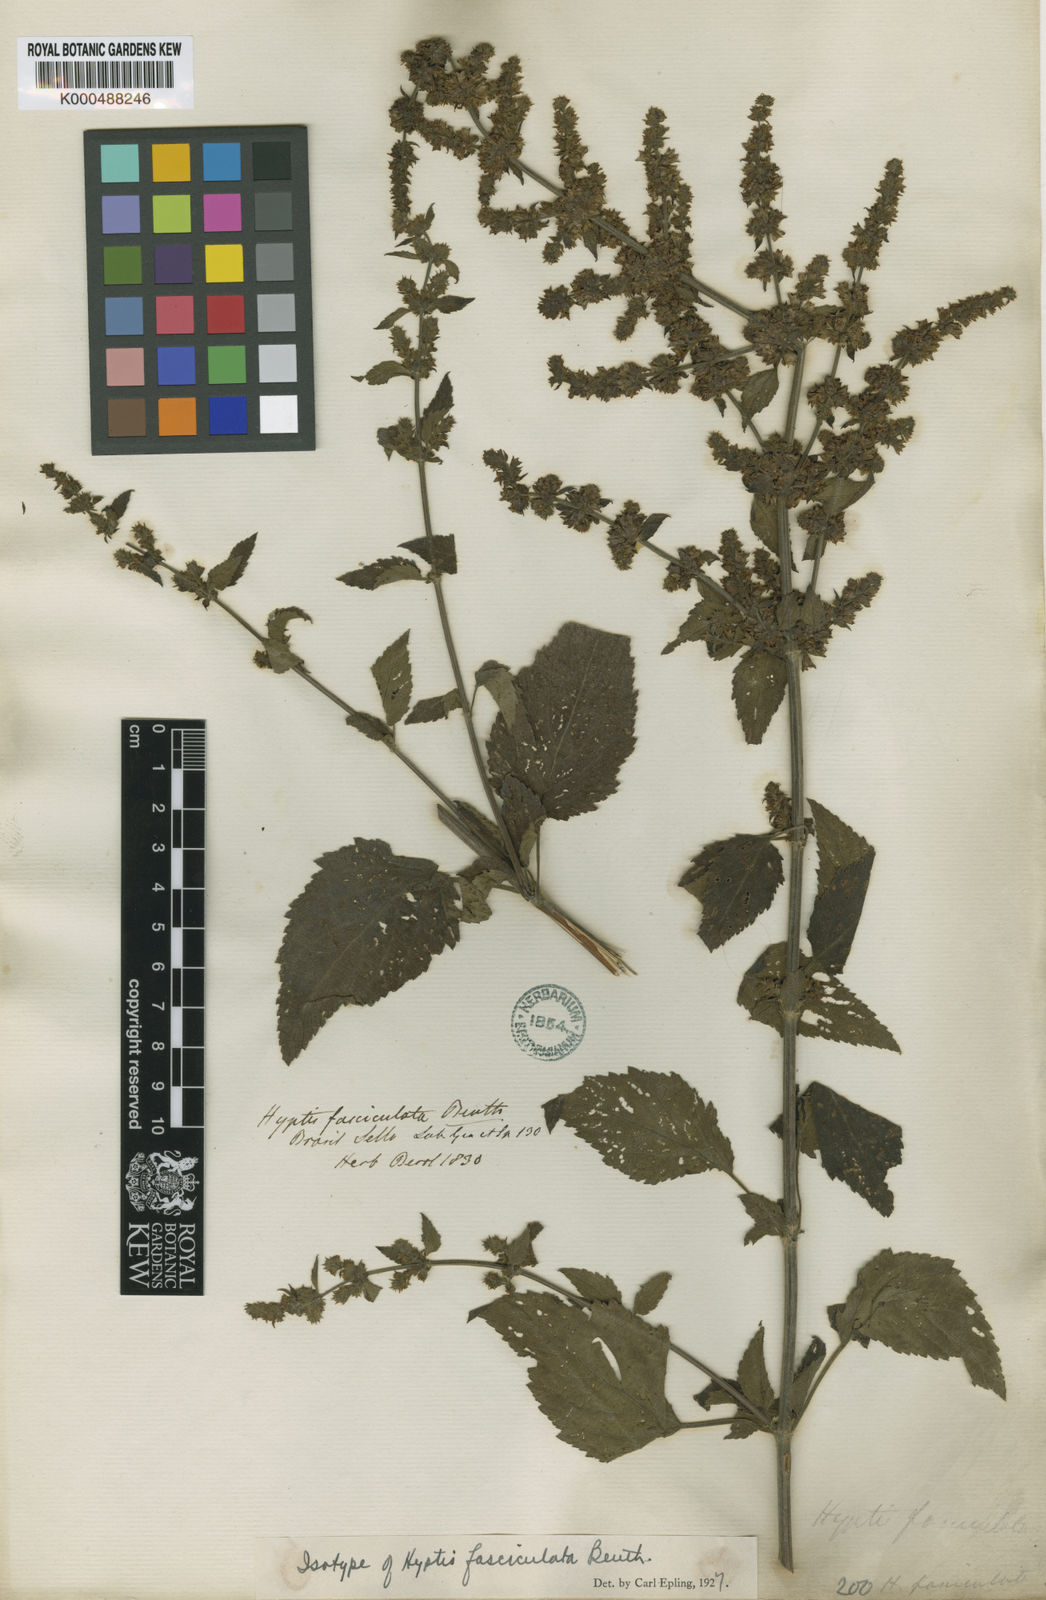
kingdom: Plantae
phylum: Tracheophyta
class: Magnoliopsida
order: Lamiales
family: Lamiaceae
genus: Condea
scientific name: Condea undulata
